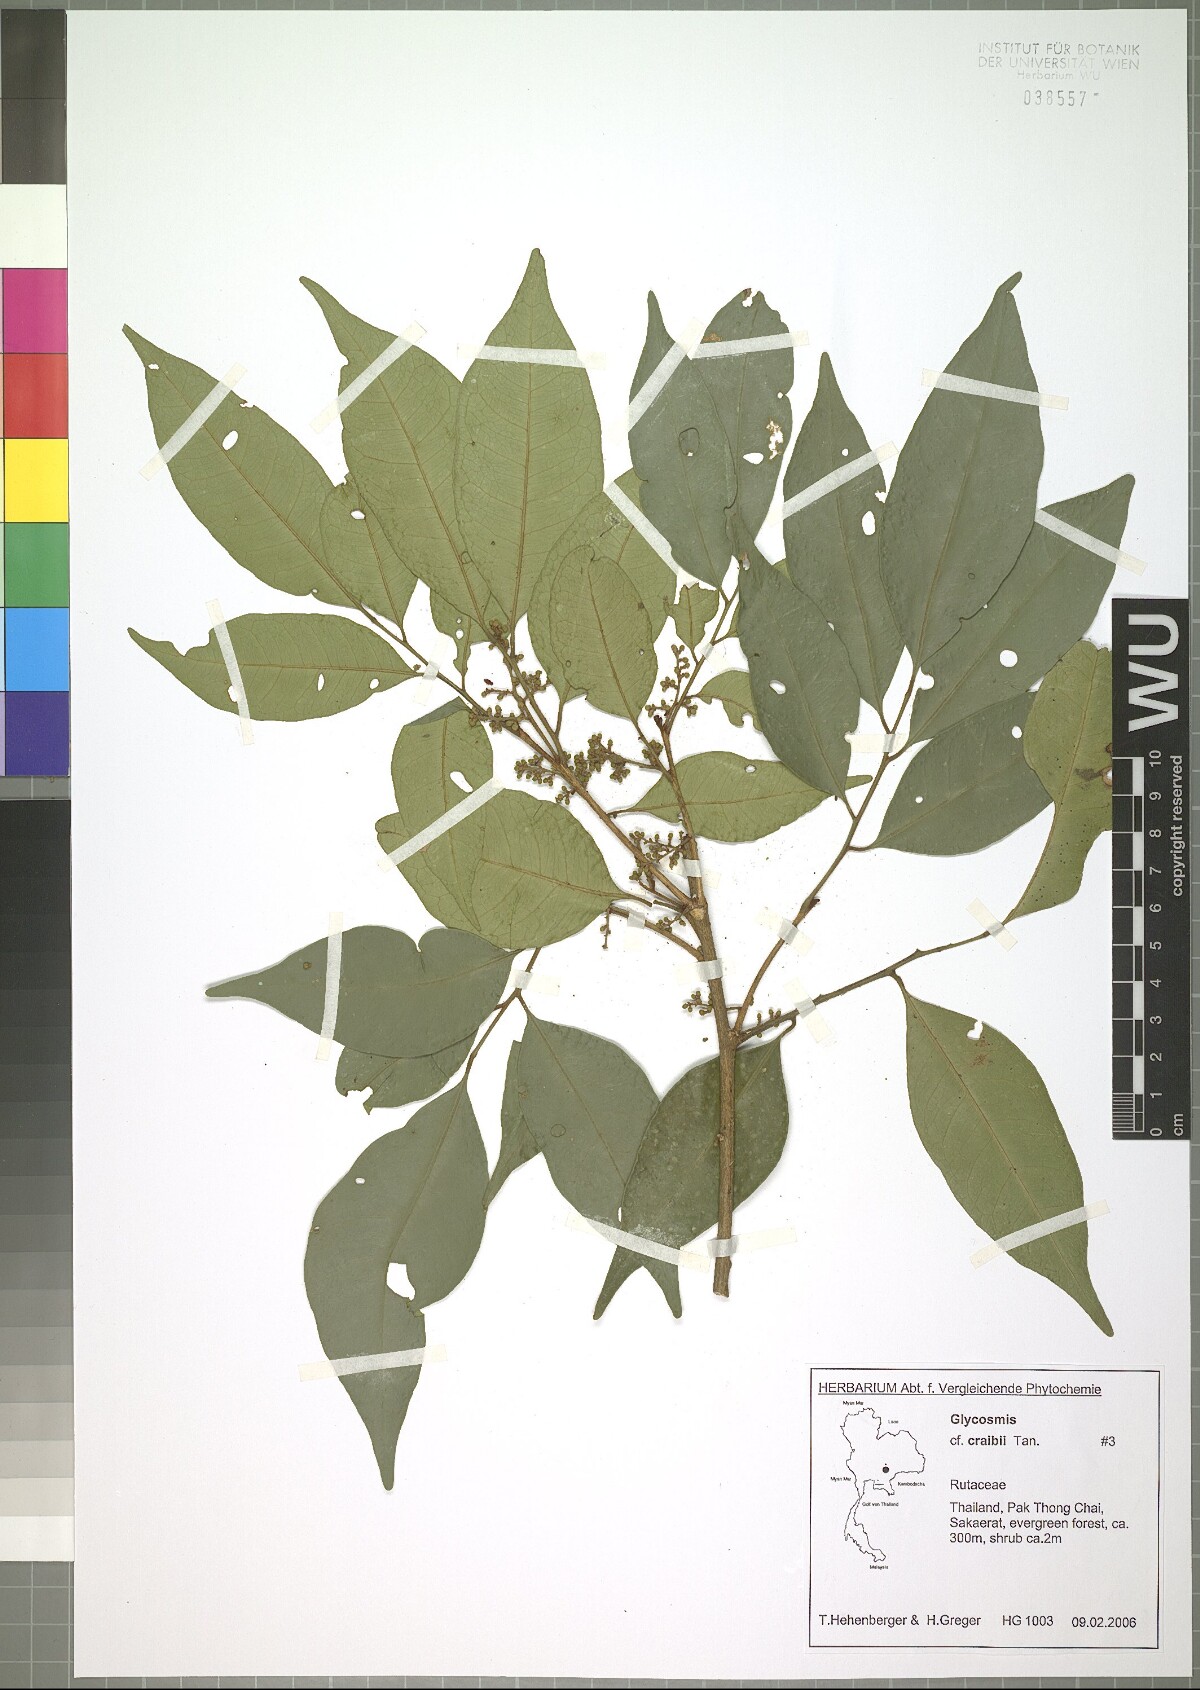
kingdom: Plantae
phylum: Tracheophyta
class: Magnoliopsida
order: Sapindales
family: Rutaceae
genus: Glycosmis
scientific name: Glycosmis craibii
